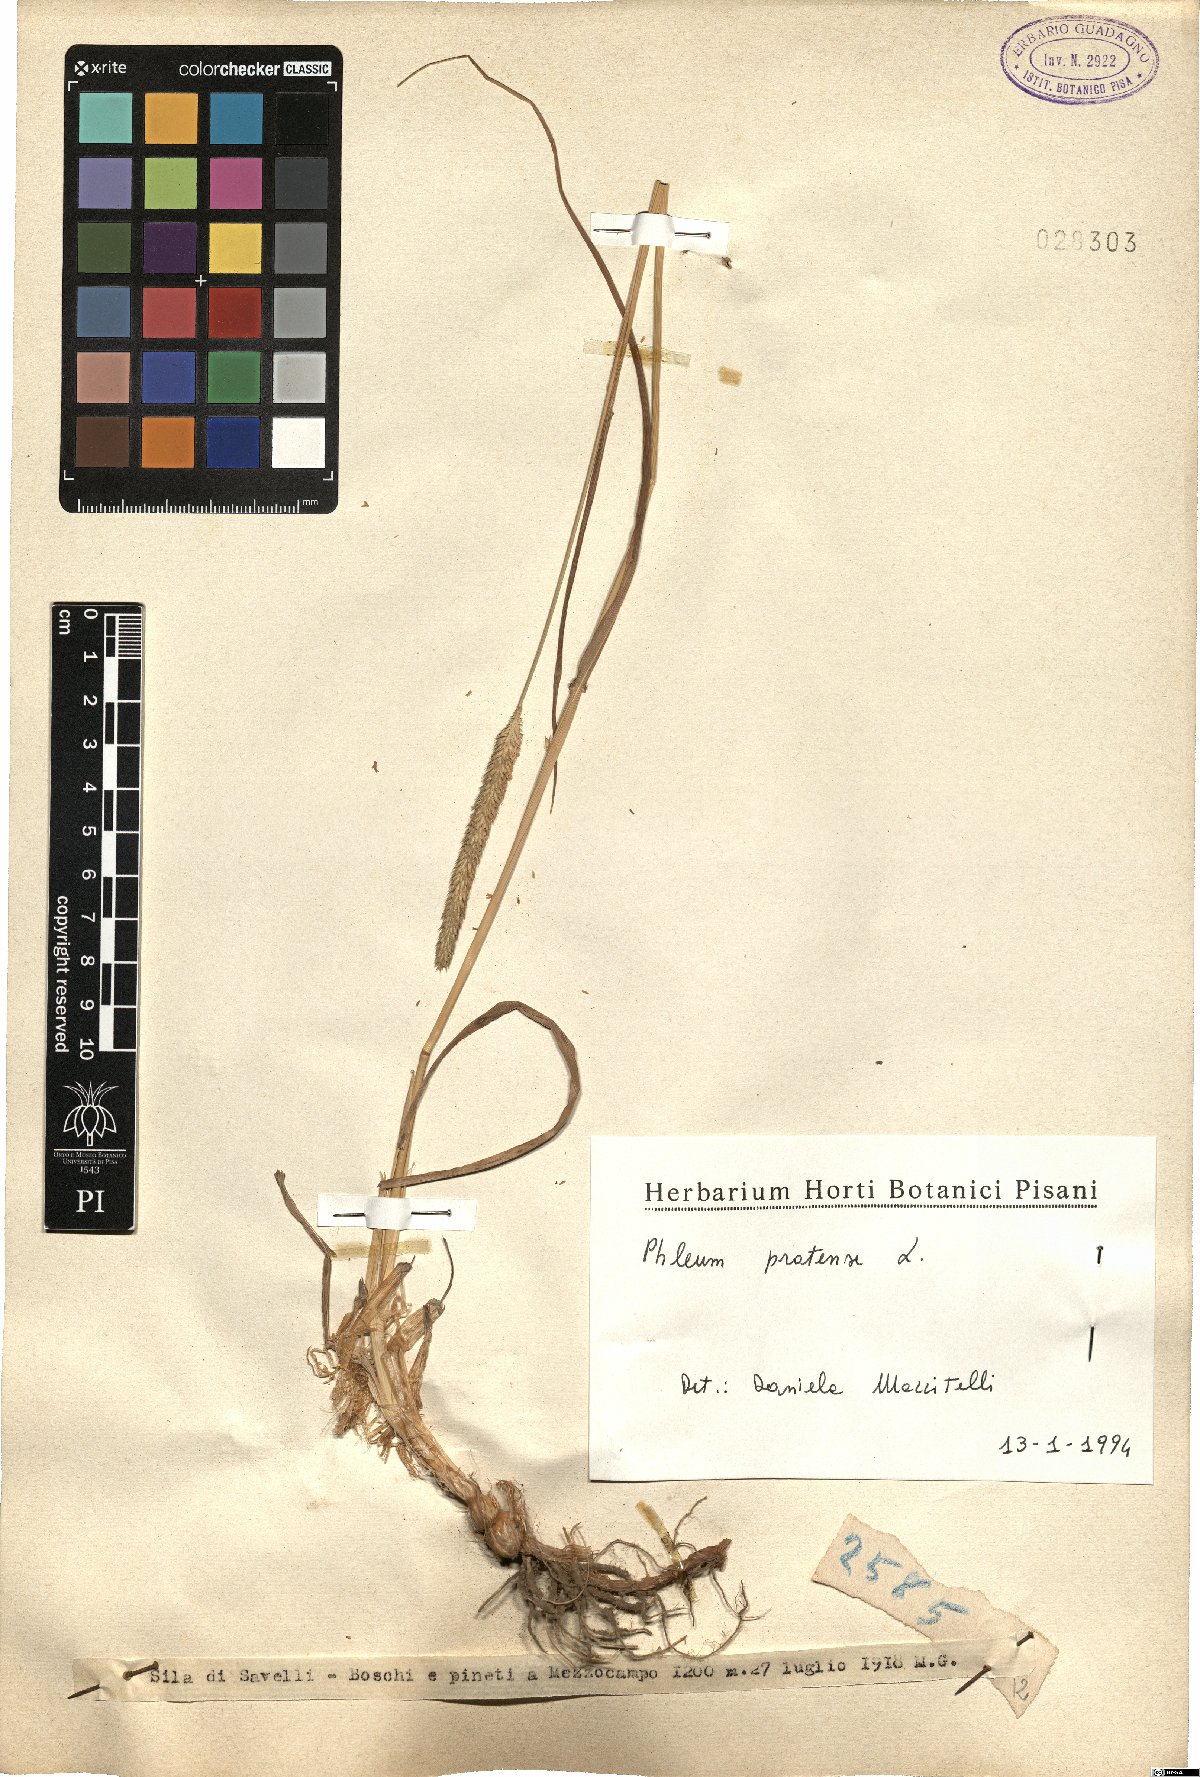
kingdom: Plantae
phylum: Tracheophyta
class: Liliopsida
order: Poales
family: Poaceae
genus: Phleum
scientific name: Phleum pratense
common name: Timothy grass
